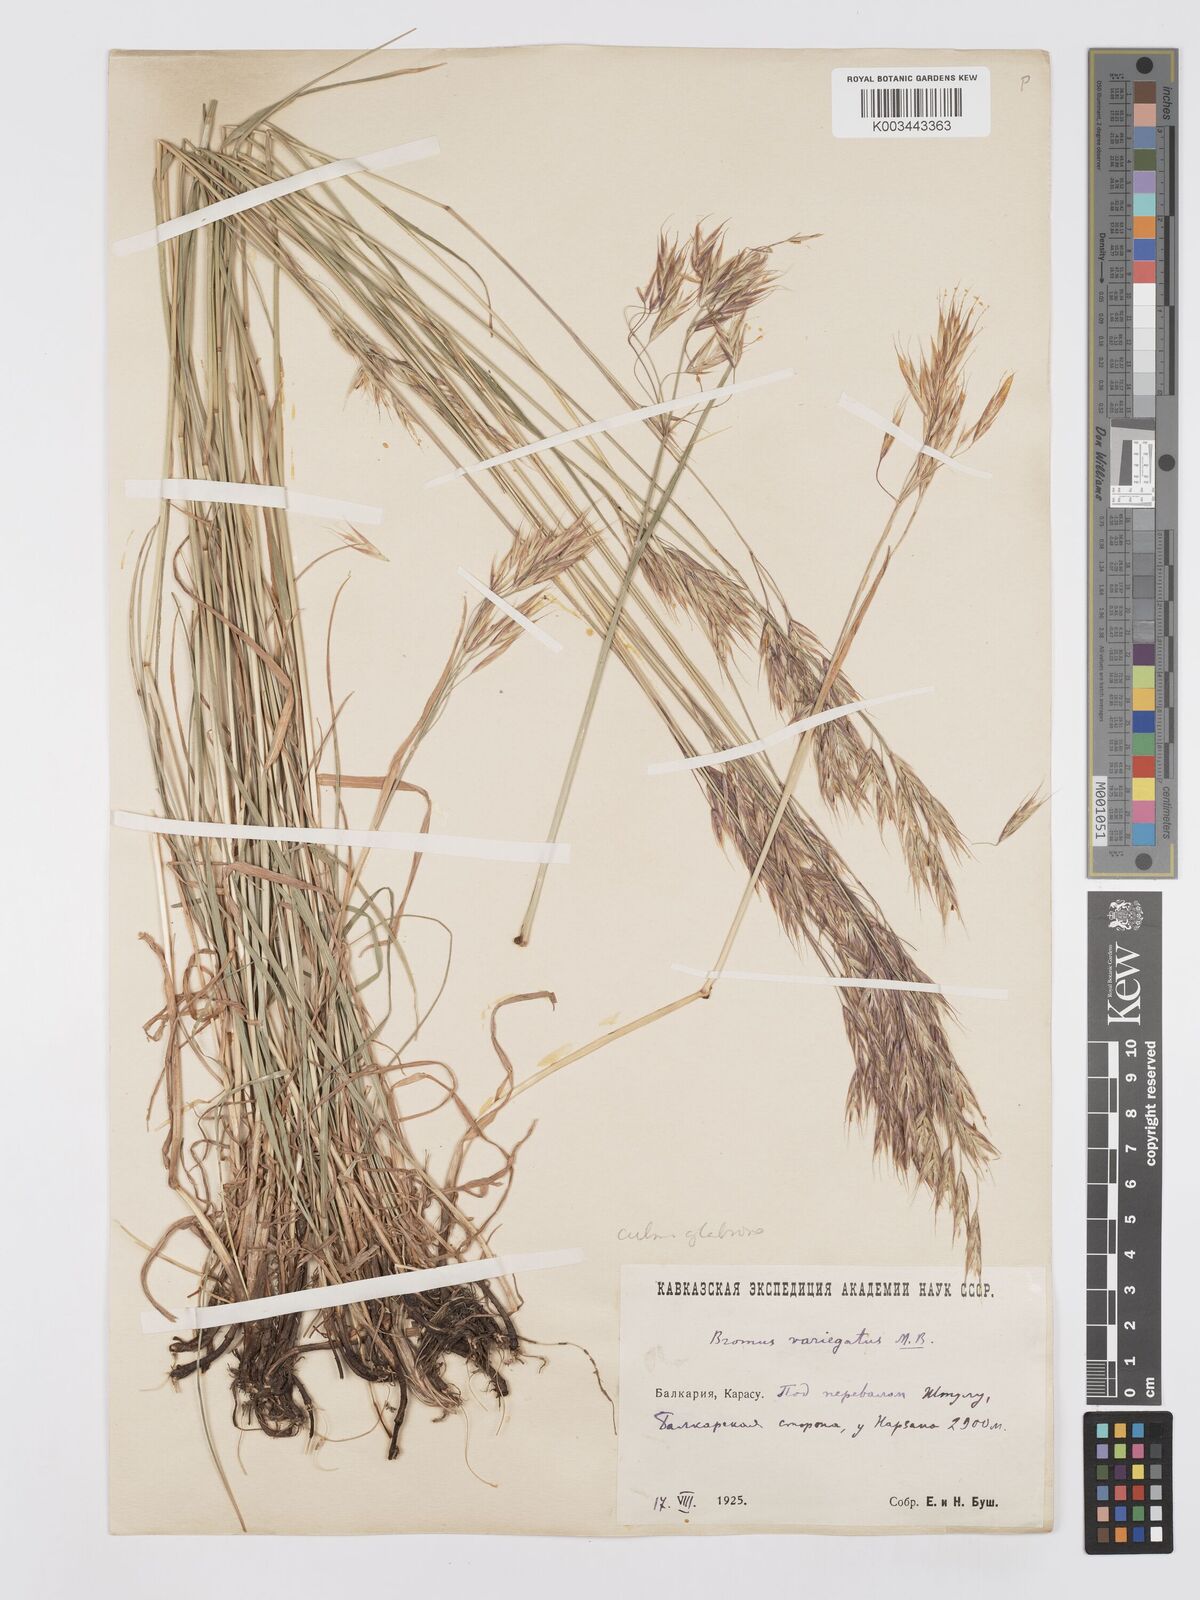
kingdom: Plantae
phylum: Tracheophyta
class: Liliopsida
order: Poales
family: Poaceae
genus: Bromus
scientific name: Bromus variegatus
